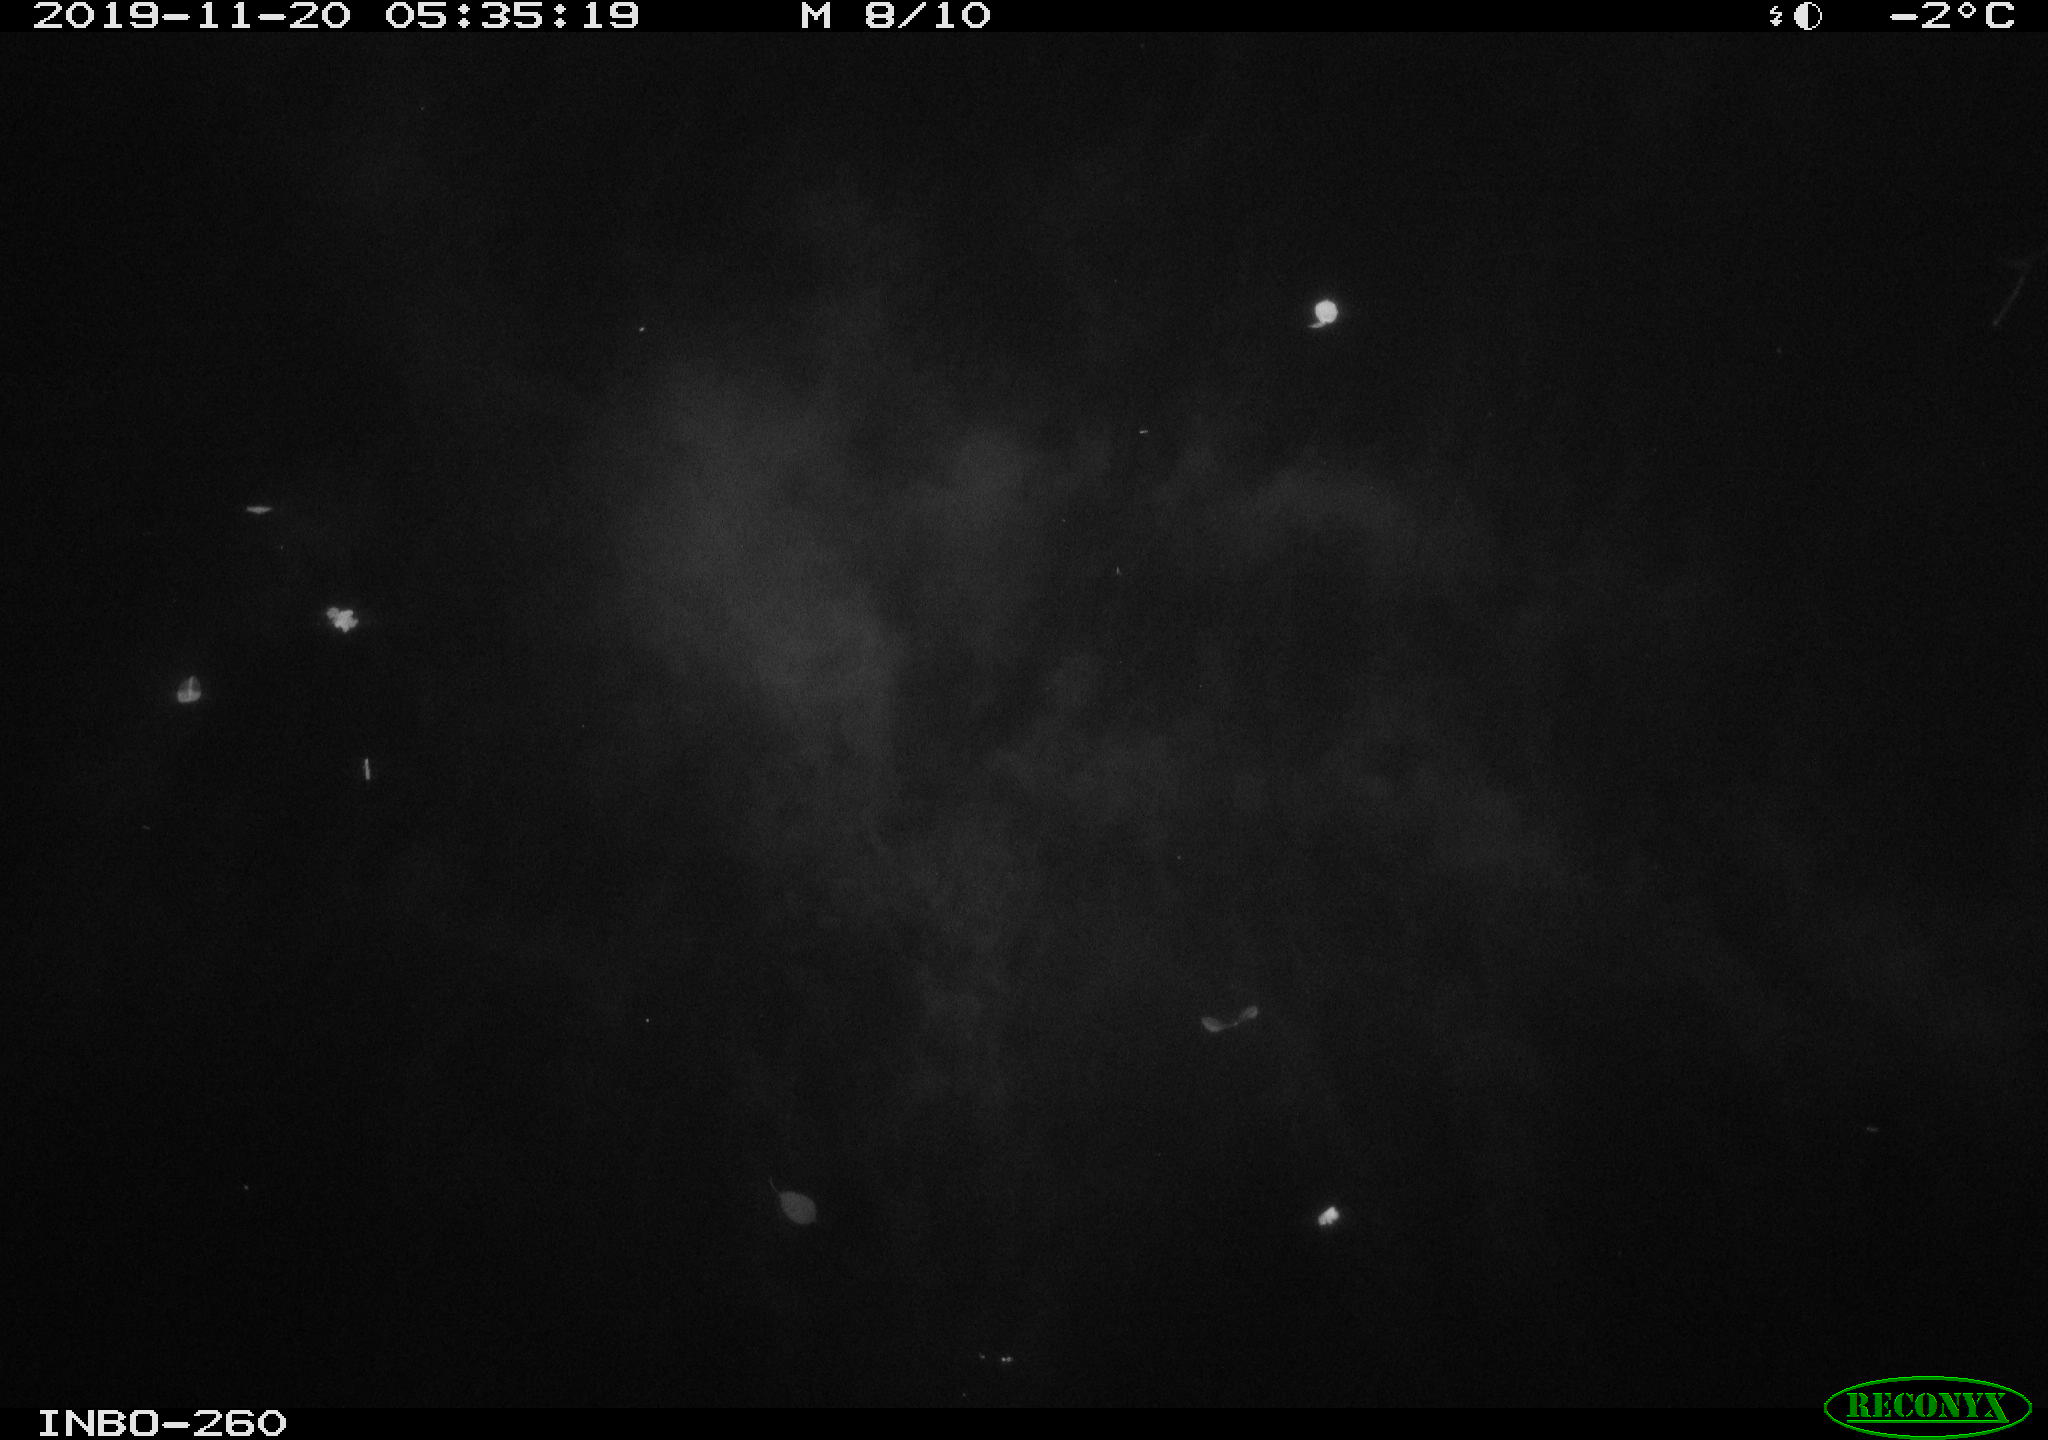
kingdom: Animalia
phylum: Chordata
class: Aves
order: Anseriformes
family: Anatidae
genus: Anas
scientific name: Anas platyrhynchos
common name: Mallard
